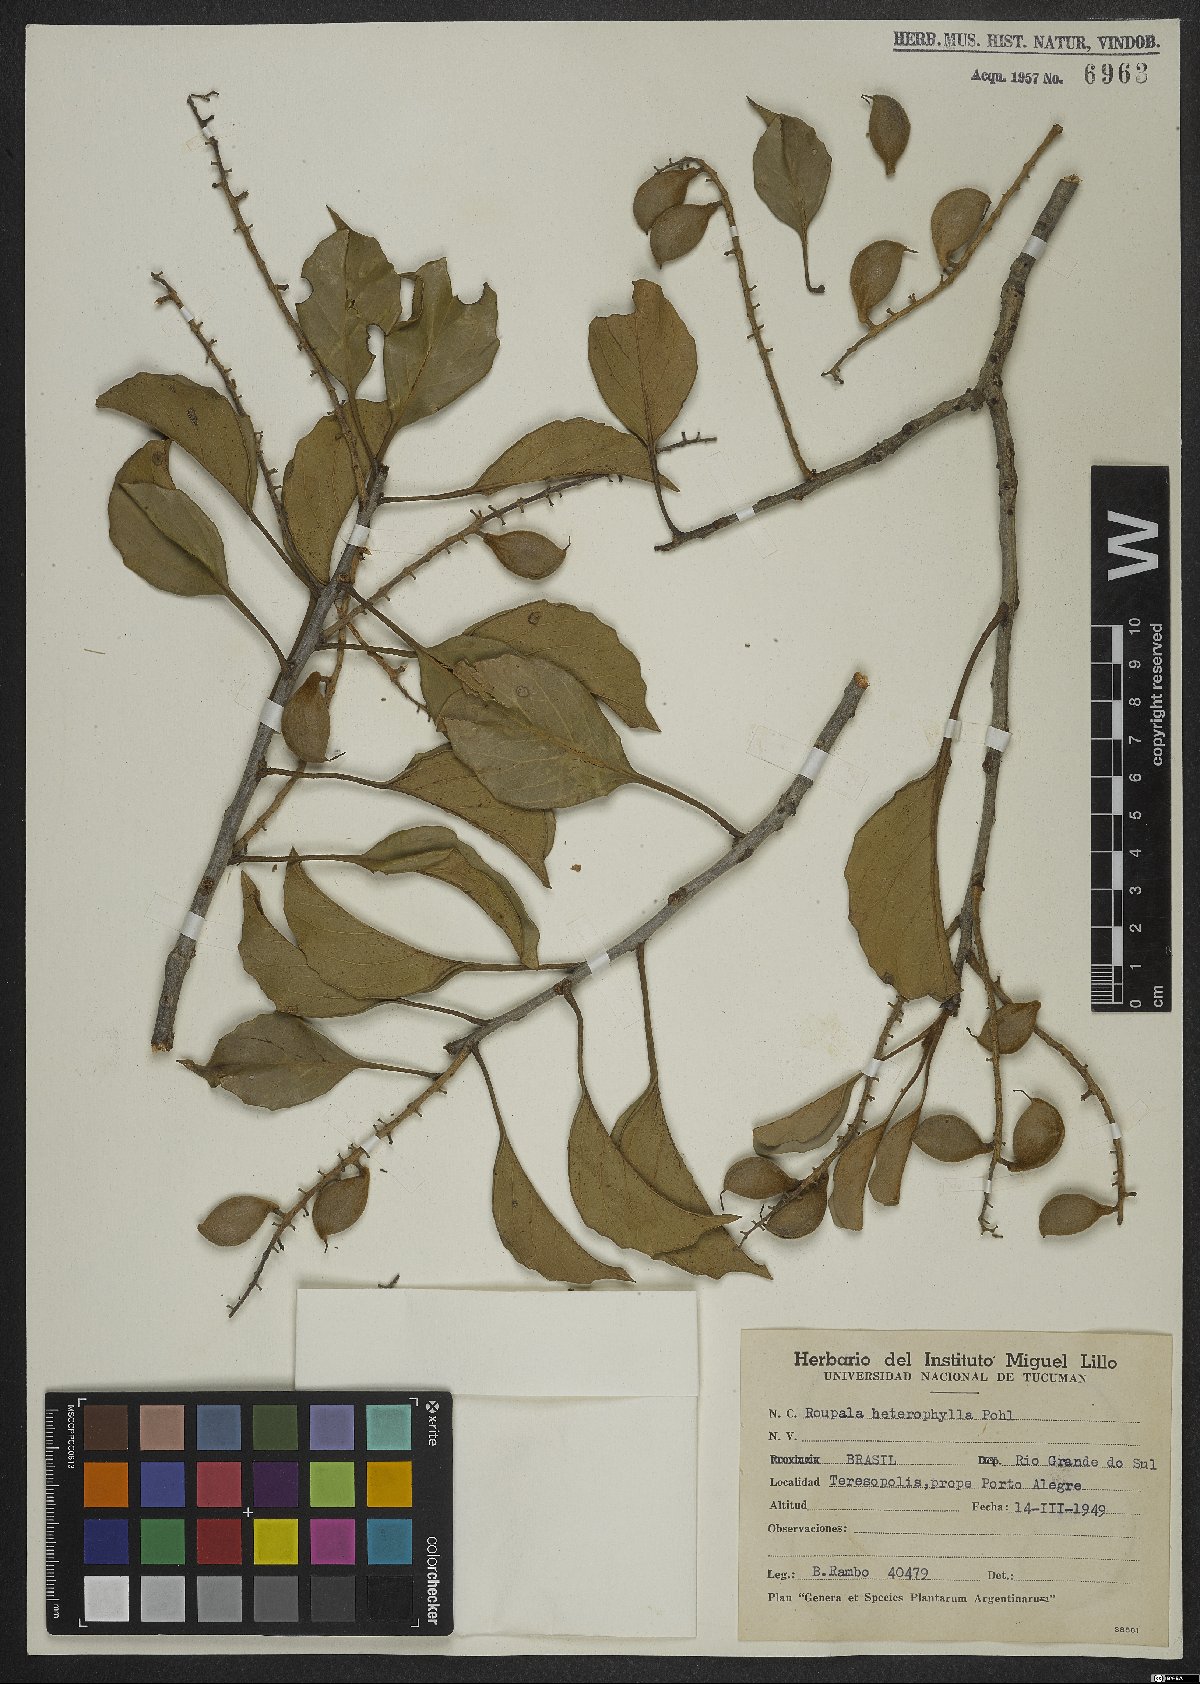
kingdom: Plantae
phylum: Tracheophyta
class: Magnoliopsida
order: Proteales
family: Proteaceae
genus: Roupala
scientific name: Roupala montana
